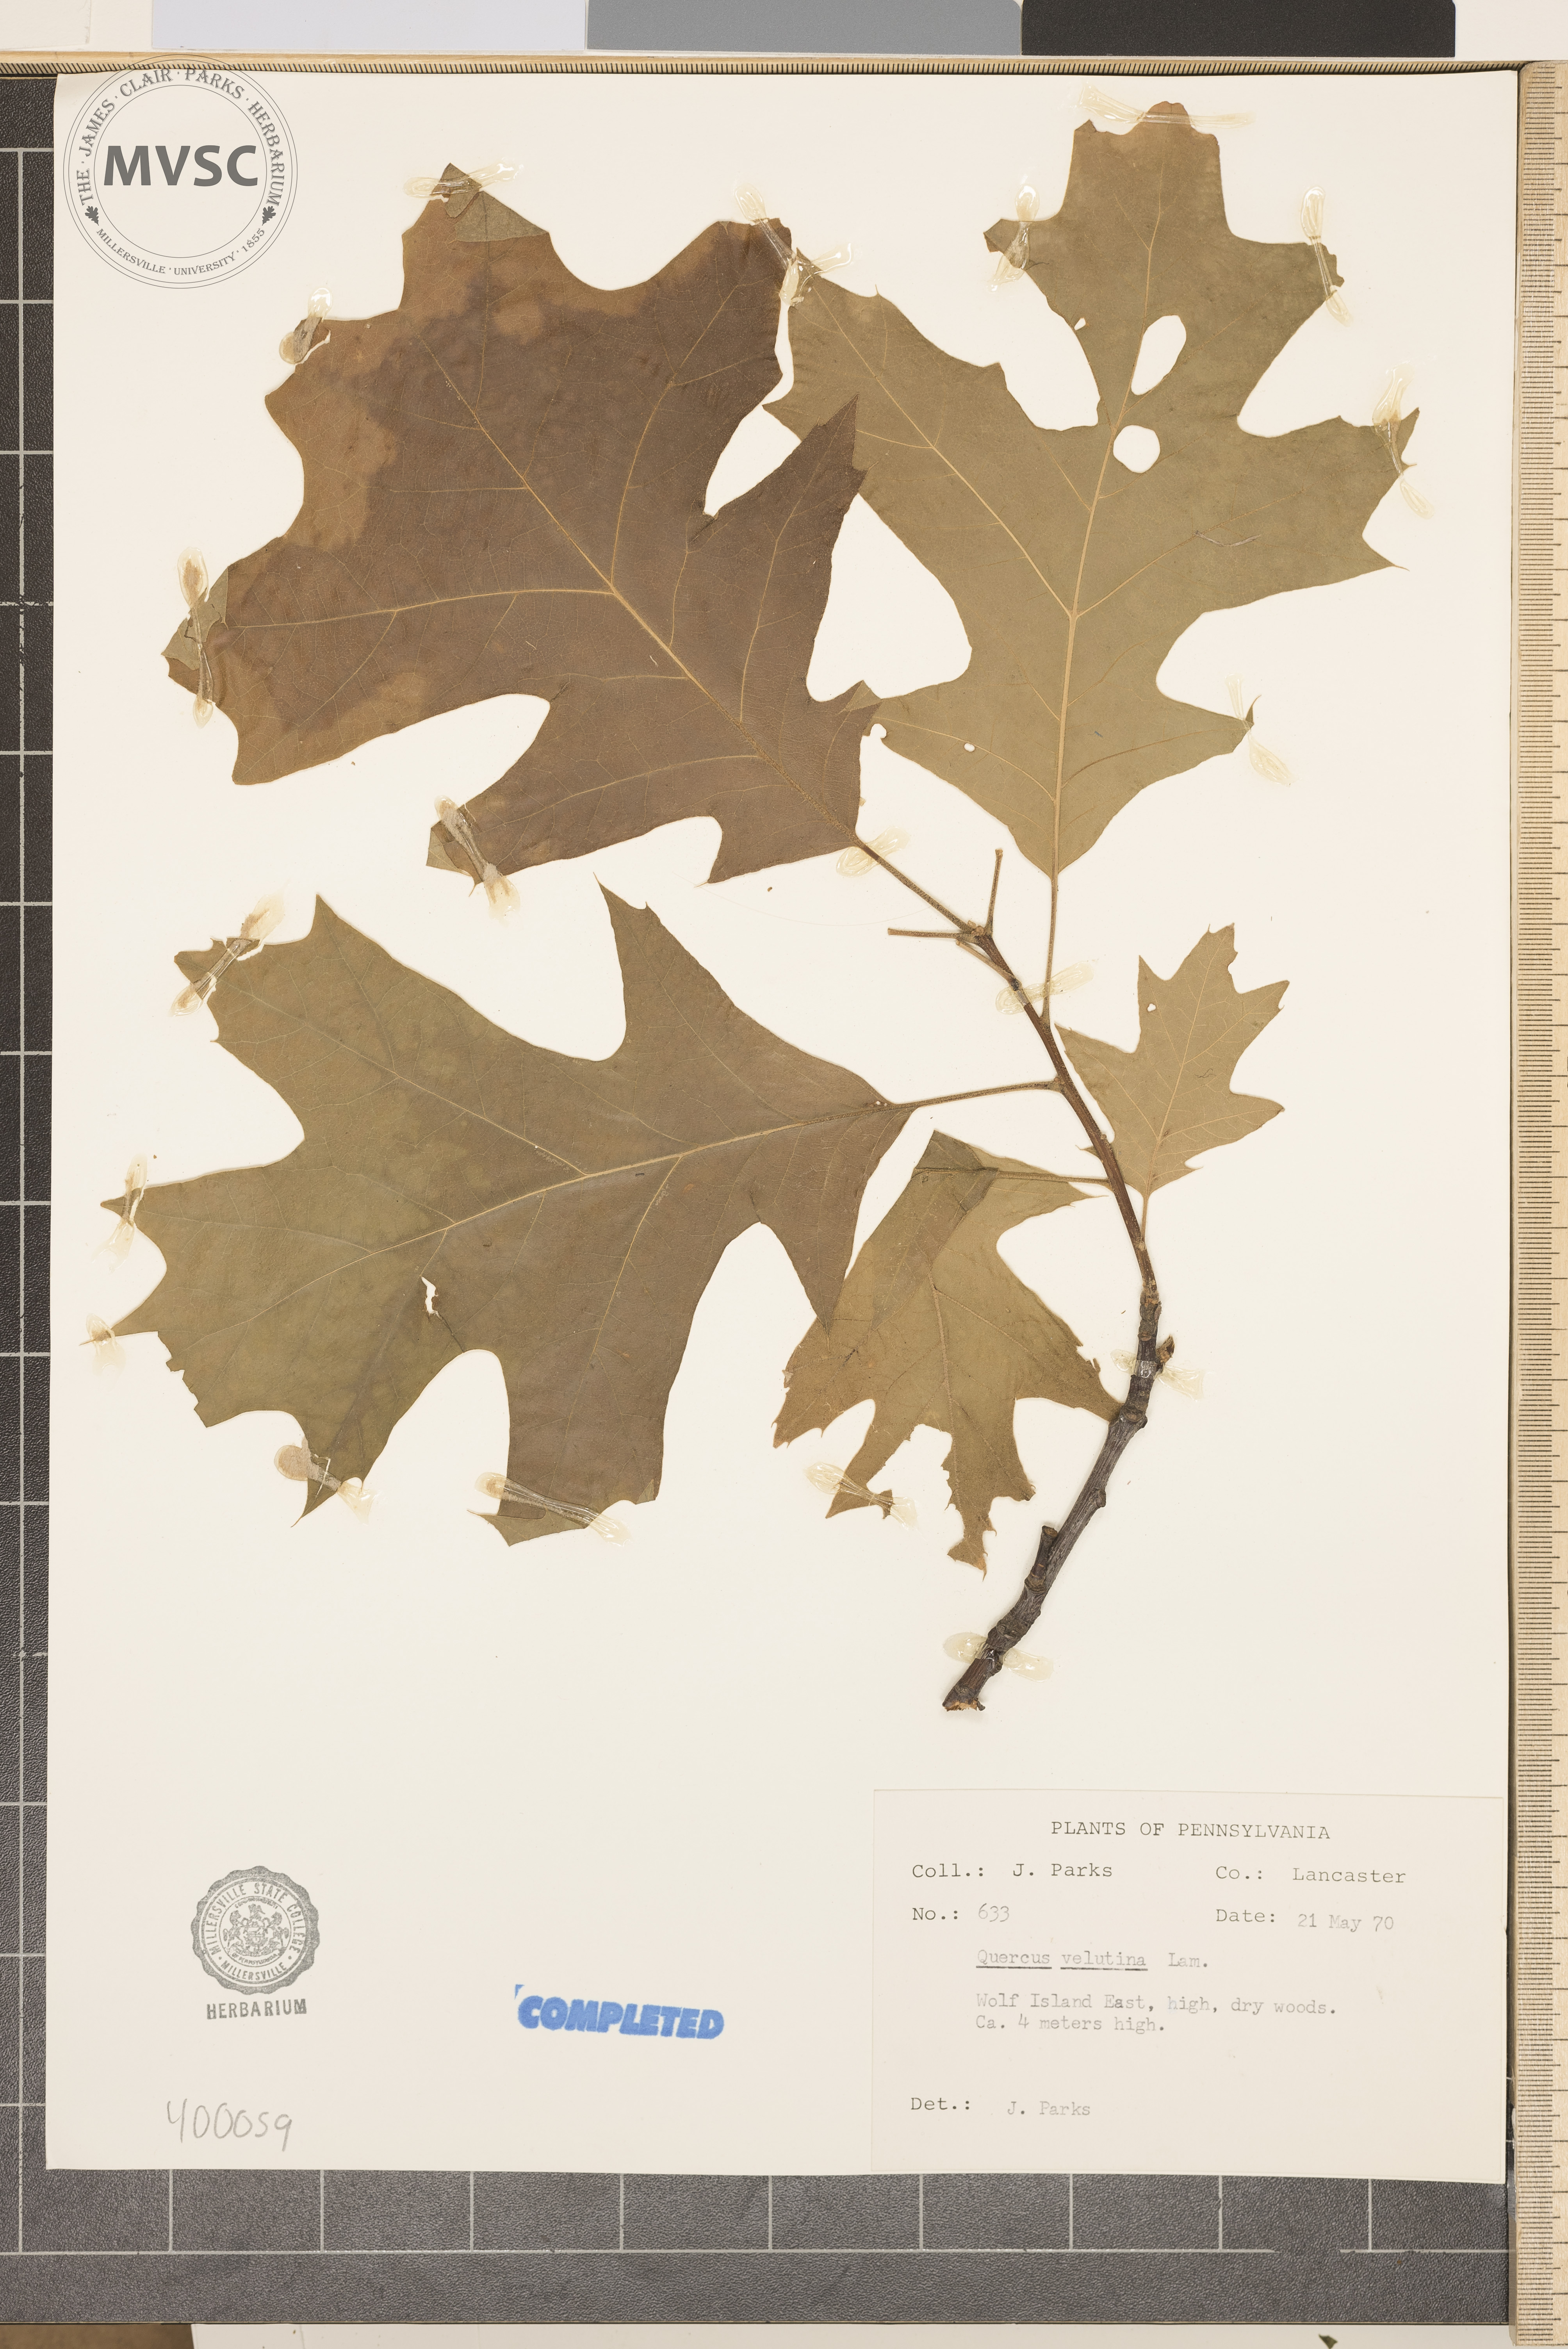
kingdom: Plantae
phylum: Tracheophyta
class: Magnoliopsida
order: Fagales
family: Fagaceae
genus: Quercus
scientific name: Quercus velutina
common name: black oak
